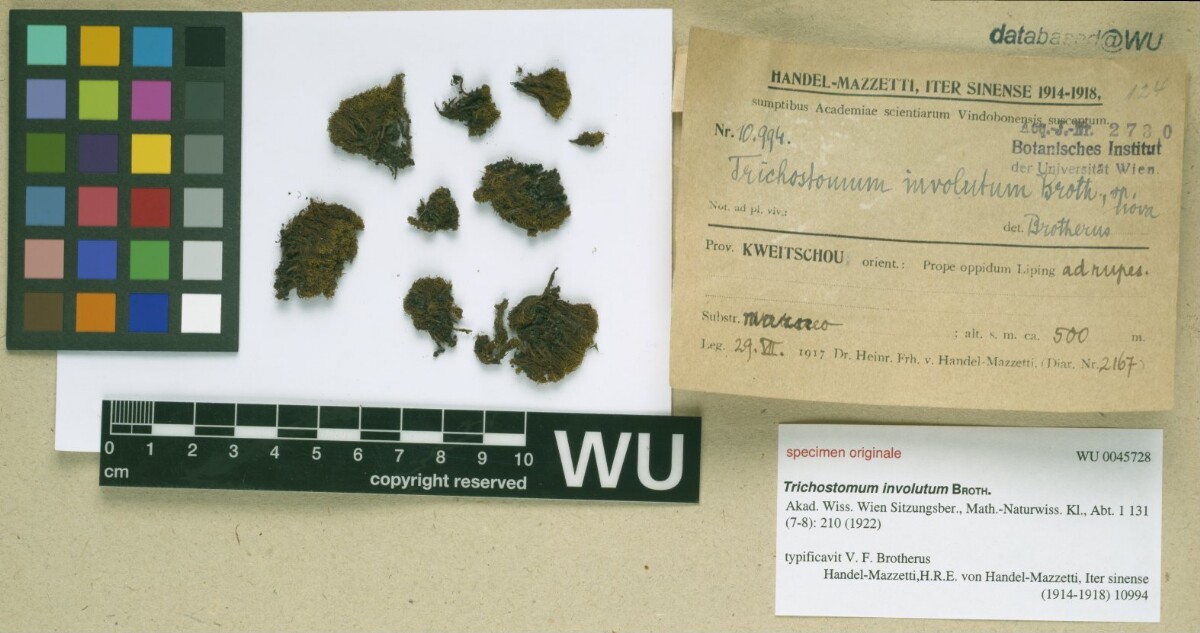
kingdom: Plantae
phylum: Bryophyta
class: Bryopsida
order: Pottiales
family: Pottiaceae
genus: Pachyneuropsis
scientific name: Pachyneuropsis perinvoluta
